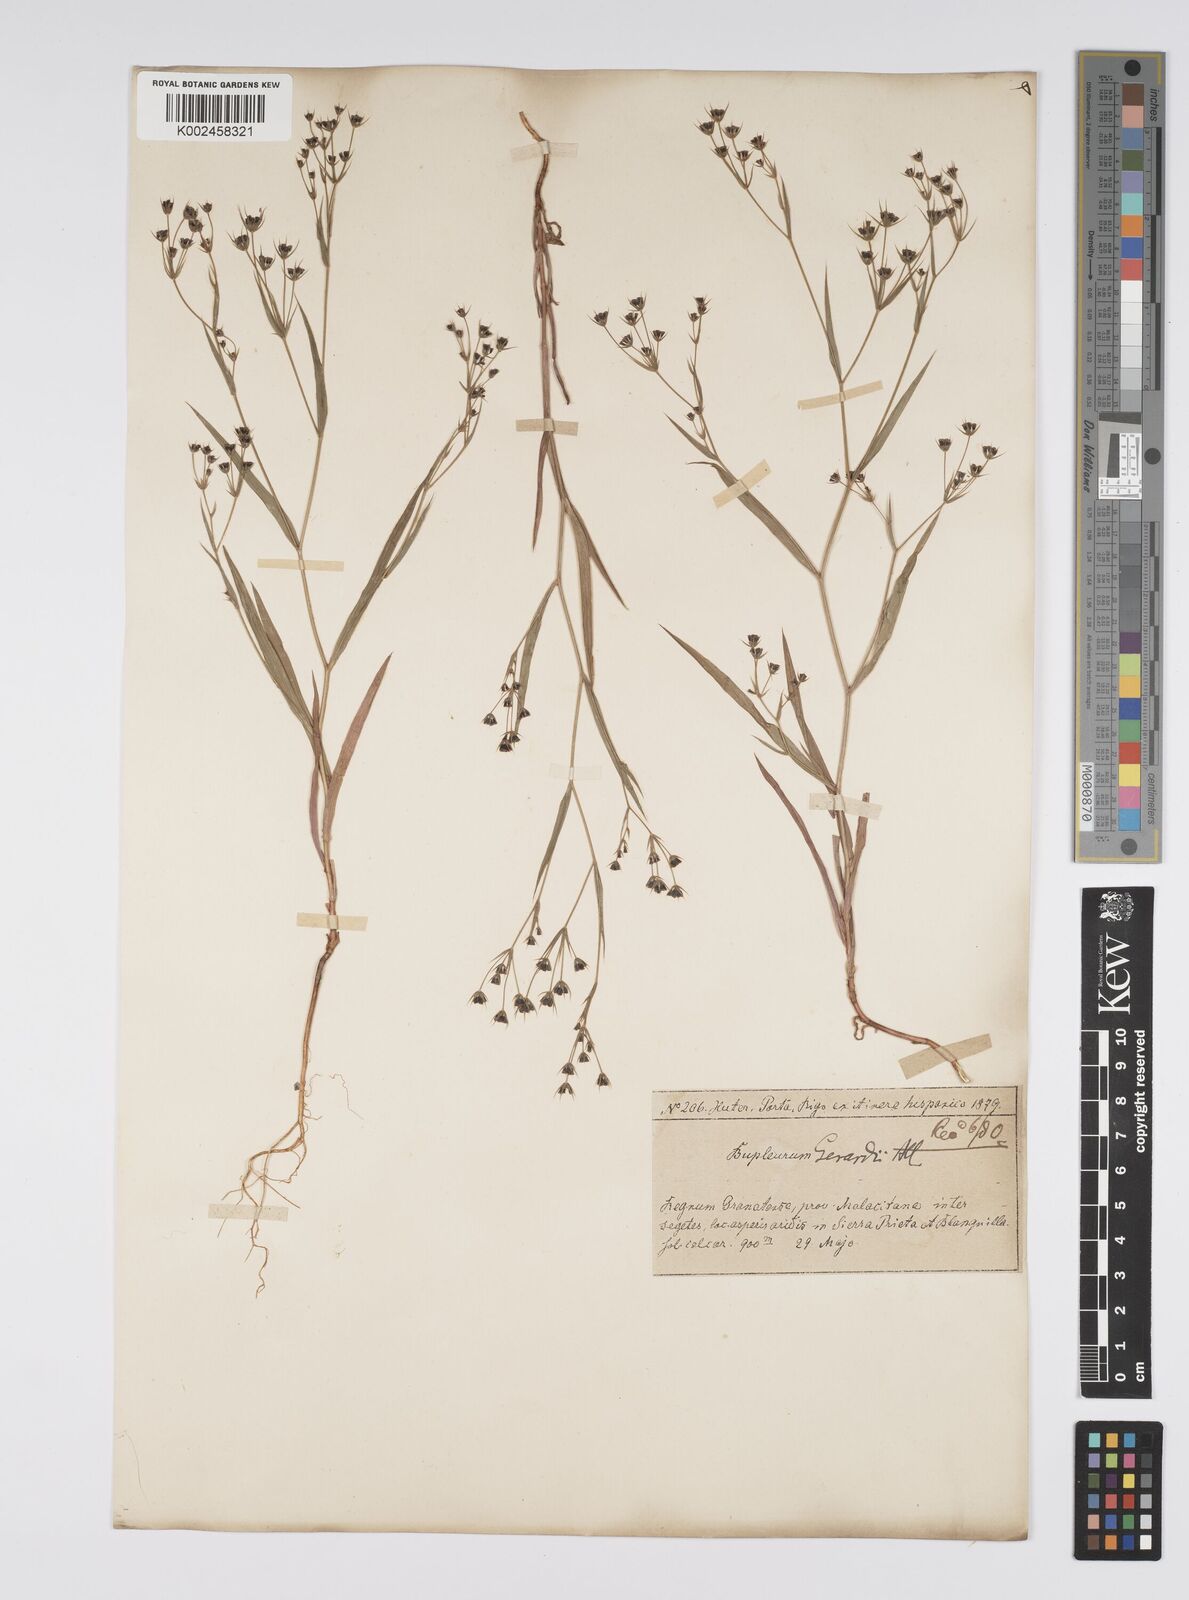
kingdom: Plantae
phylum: Tracheophyta
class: Magnoliopsida
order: Apiales
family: Apiaceae
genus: Bupleurum
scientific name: Bupleurum gerardi
